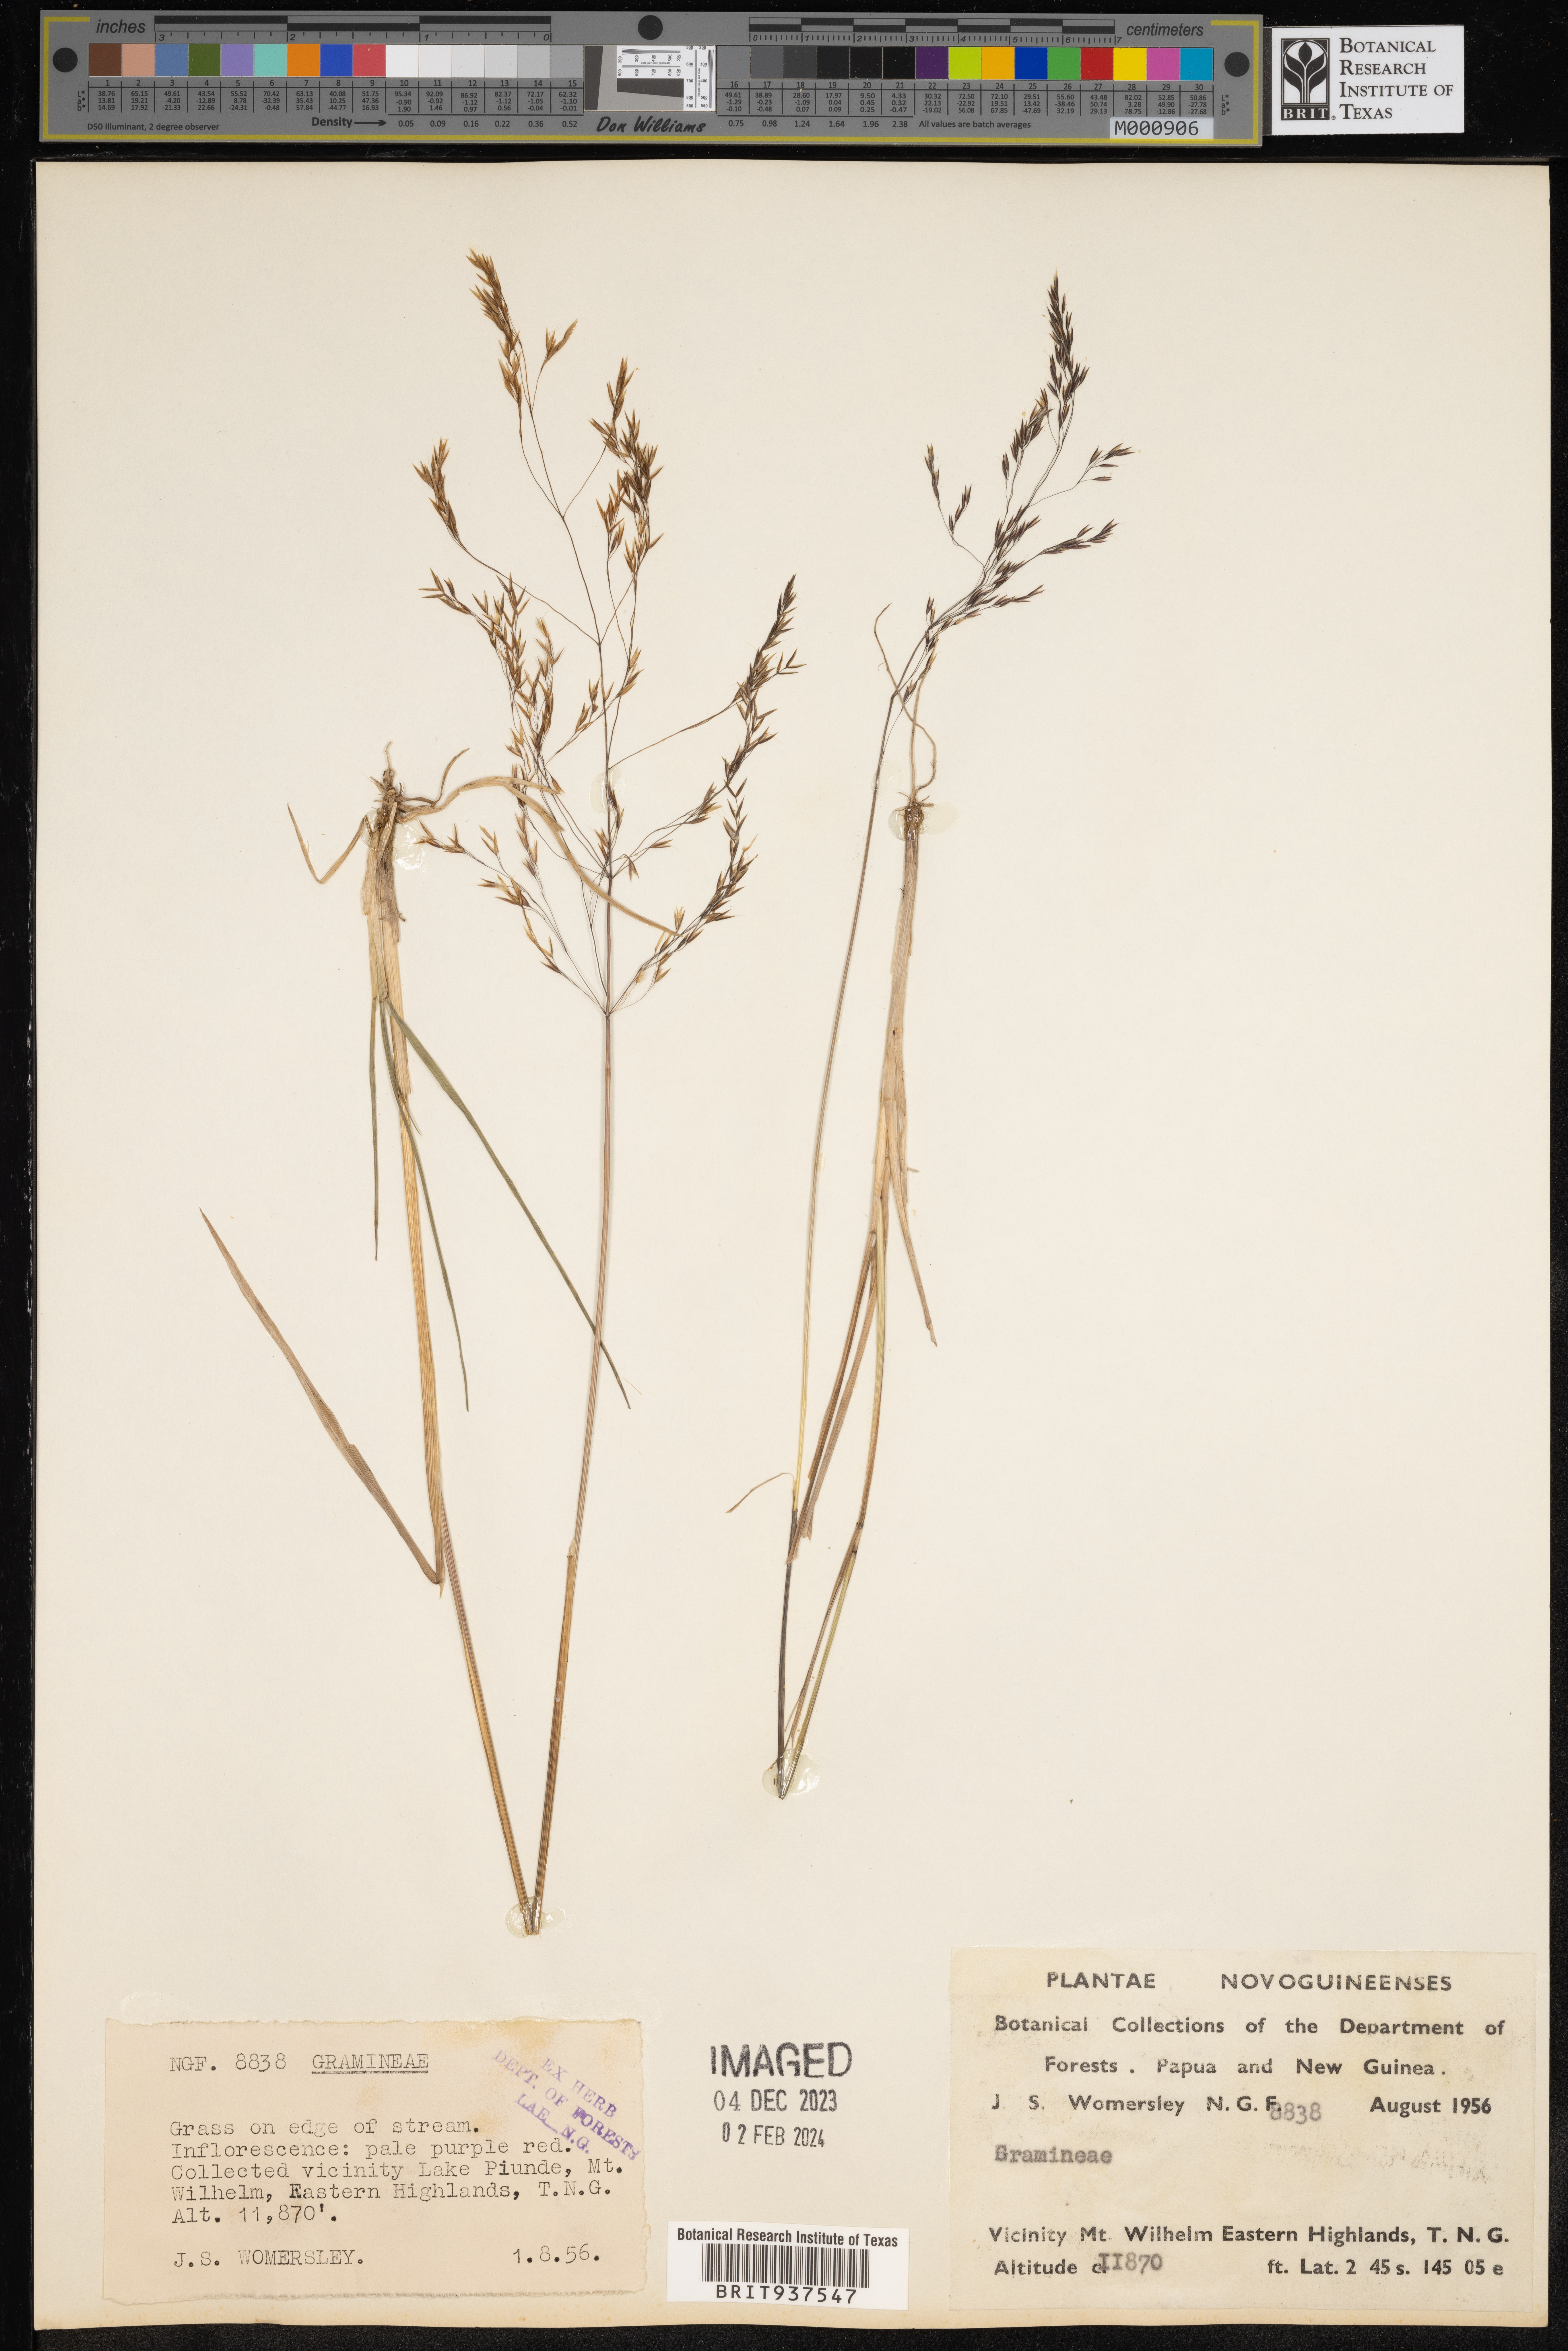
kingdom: Plantae
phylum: Tracheophyta
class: Liliopsida
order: Poales
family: Poaceae
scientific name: Poaceae
